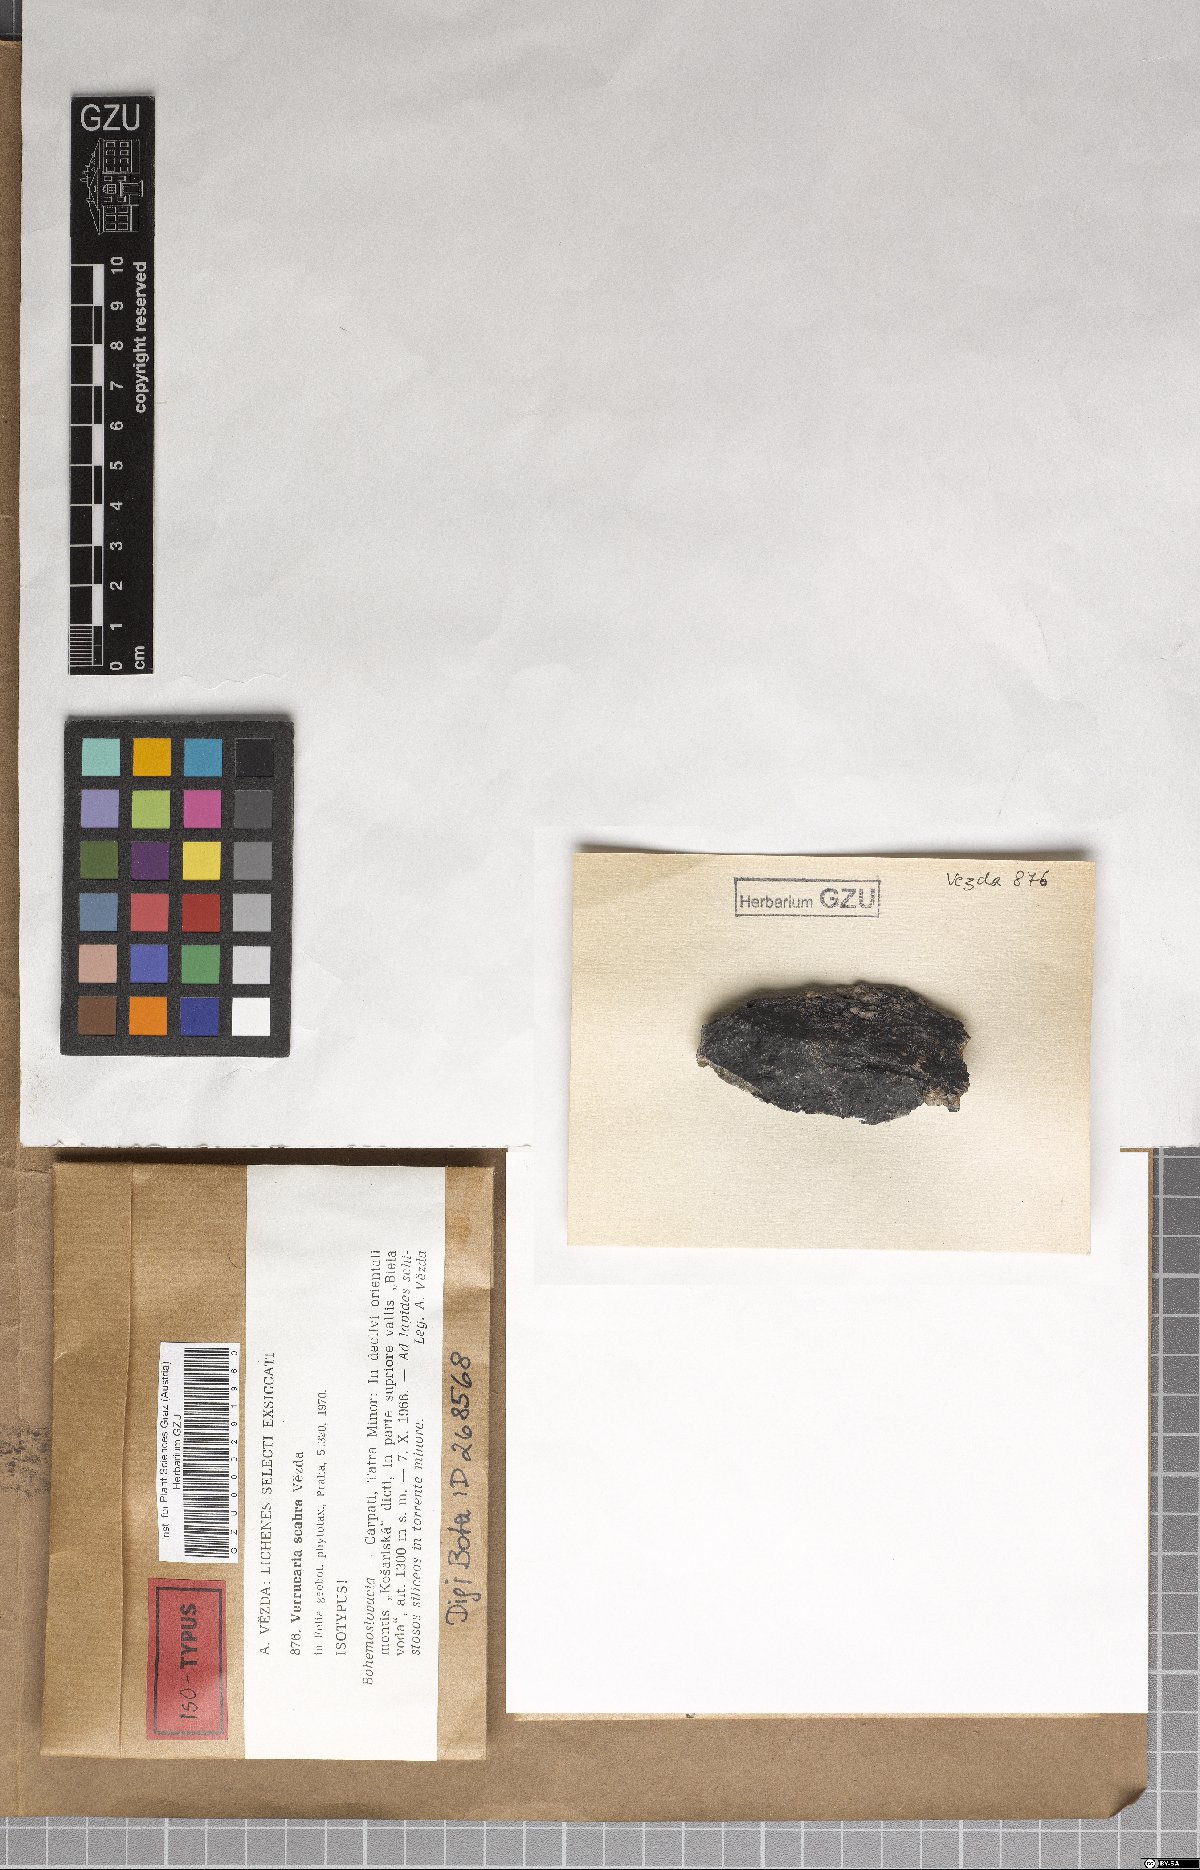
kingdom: Fungi
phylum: Ascomycota
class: Eurotiomycetes
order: Verrucariales
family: Verrucariaceae
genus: Hydropunctaria
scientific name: Hydropunctaria scabra
